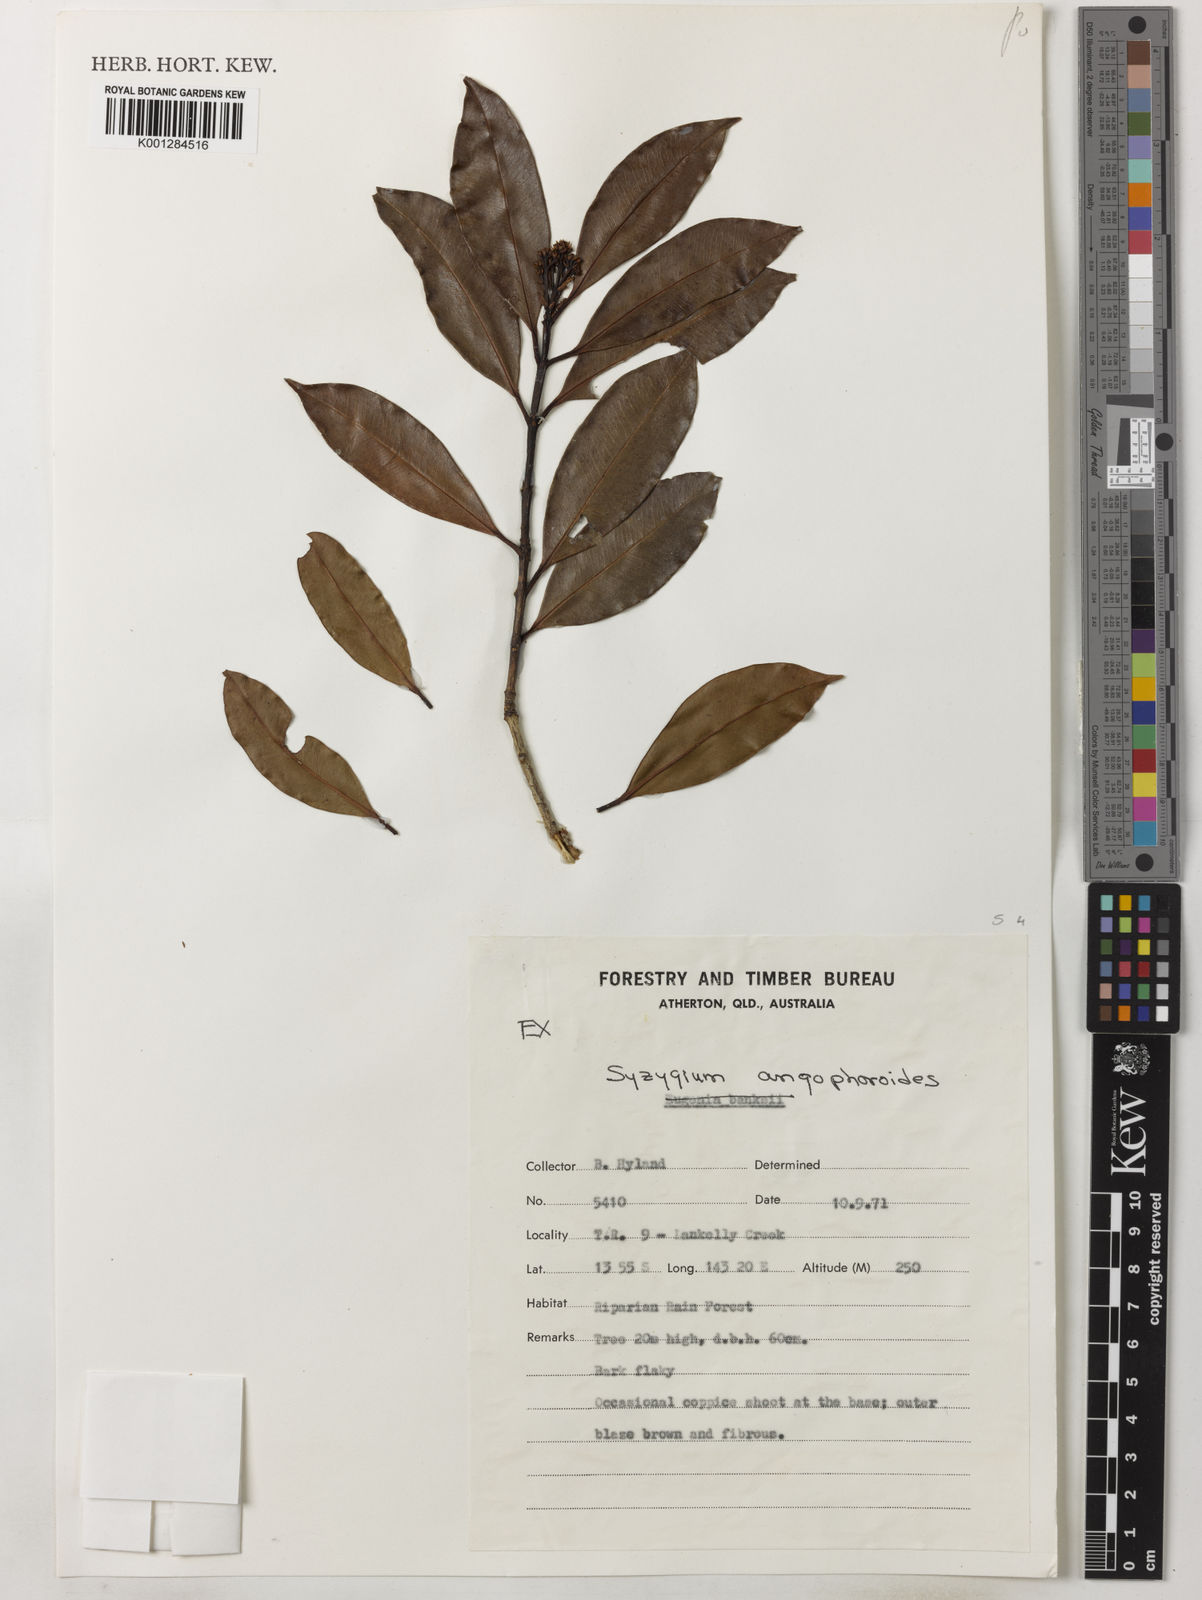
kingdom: Plantae
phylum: Tracheophyta
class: Magnoliopsida
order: Myrtales
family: Myrtaceae
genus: Syzygium
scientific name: Syzygium angophoroides
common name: Swamp satinash
